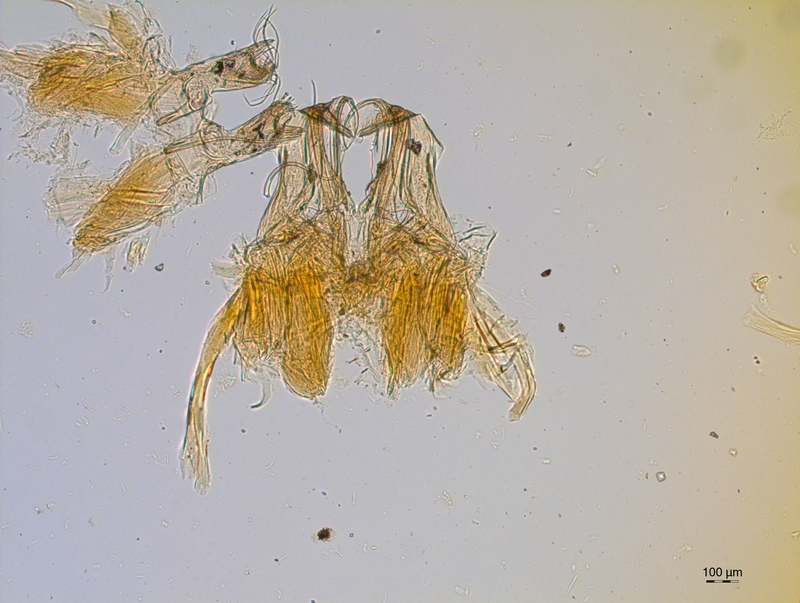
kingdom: Animalia
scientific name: Animalia
